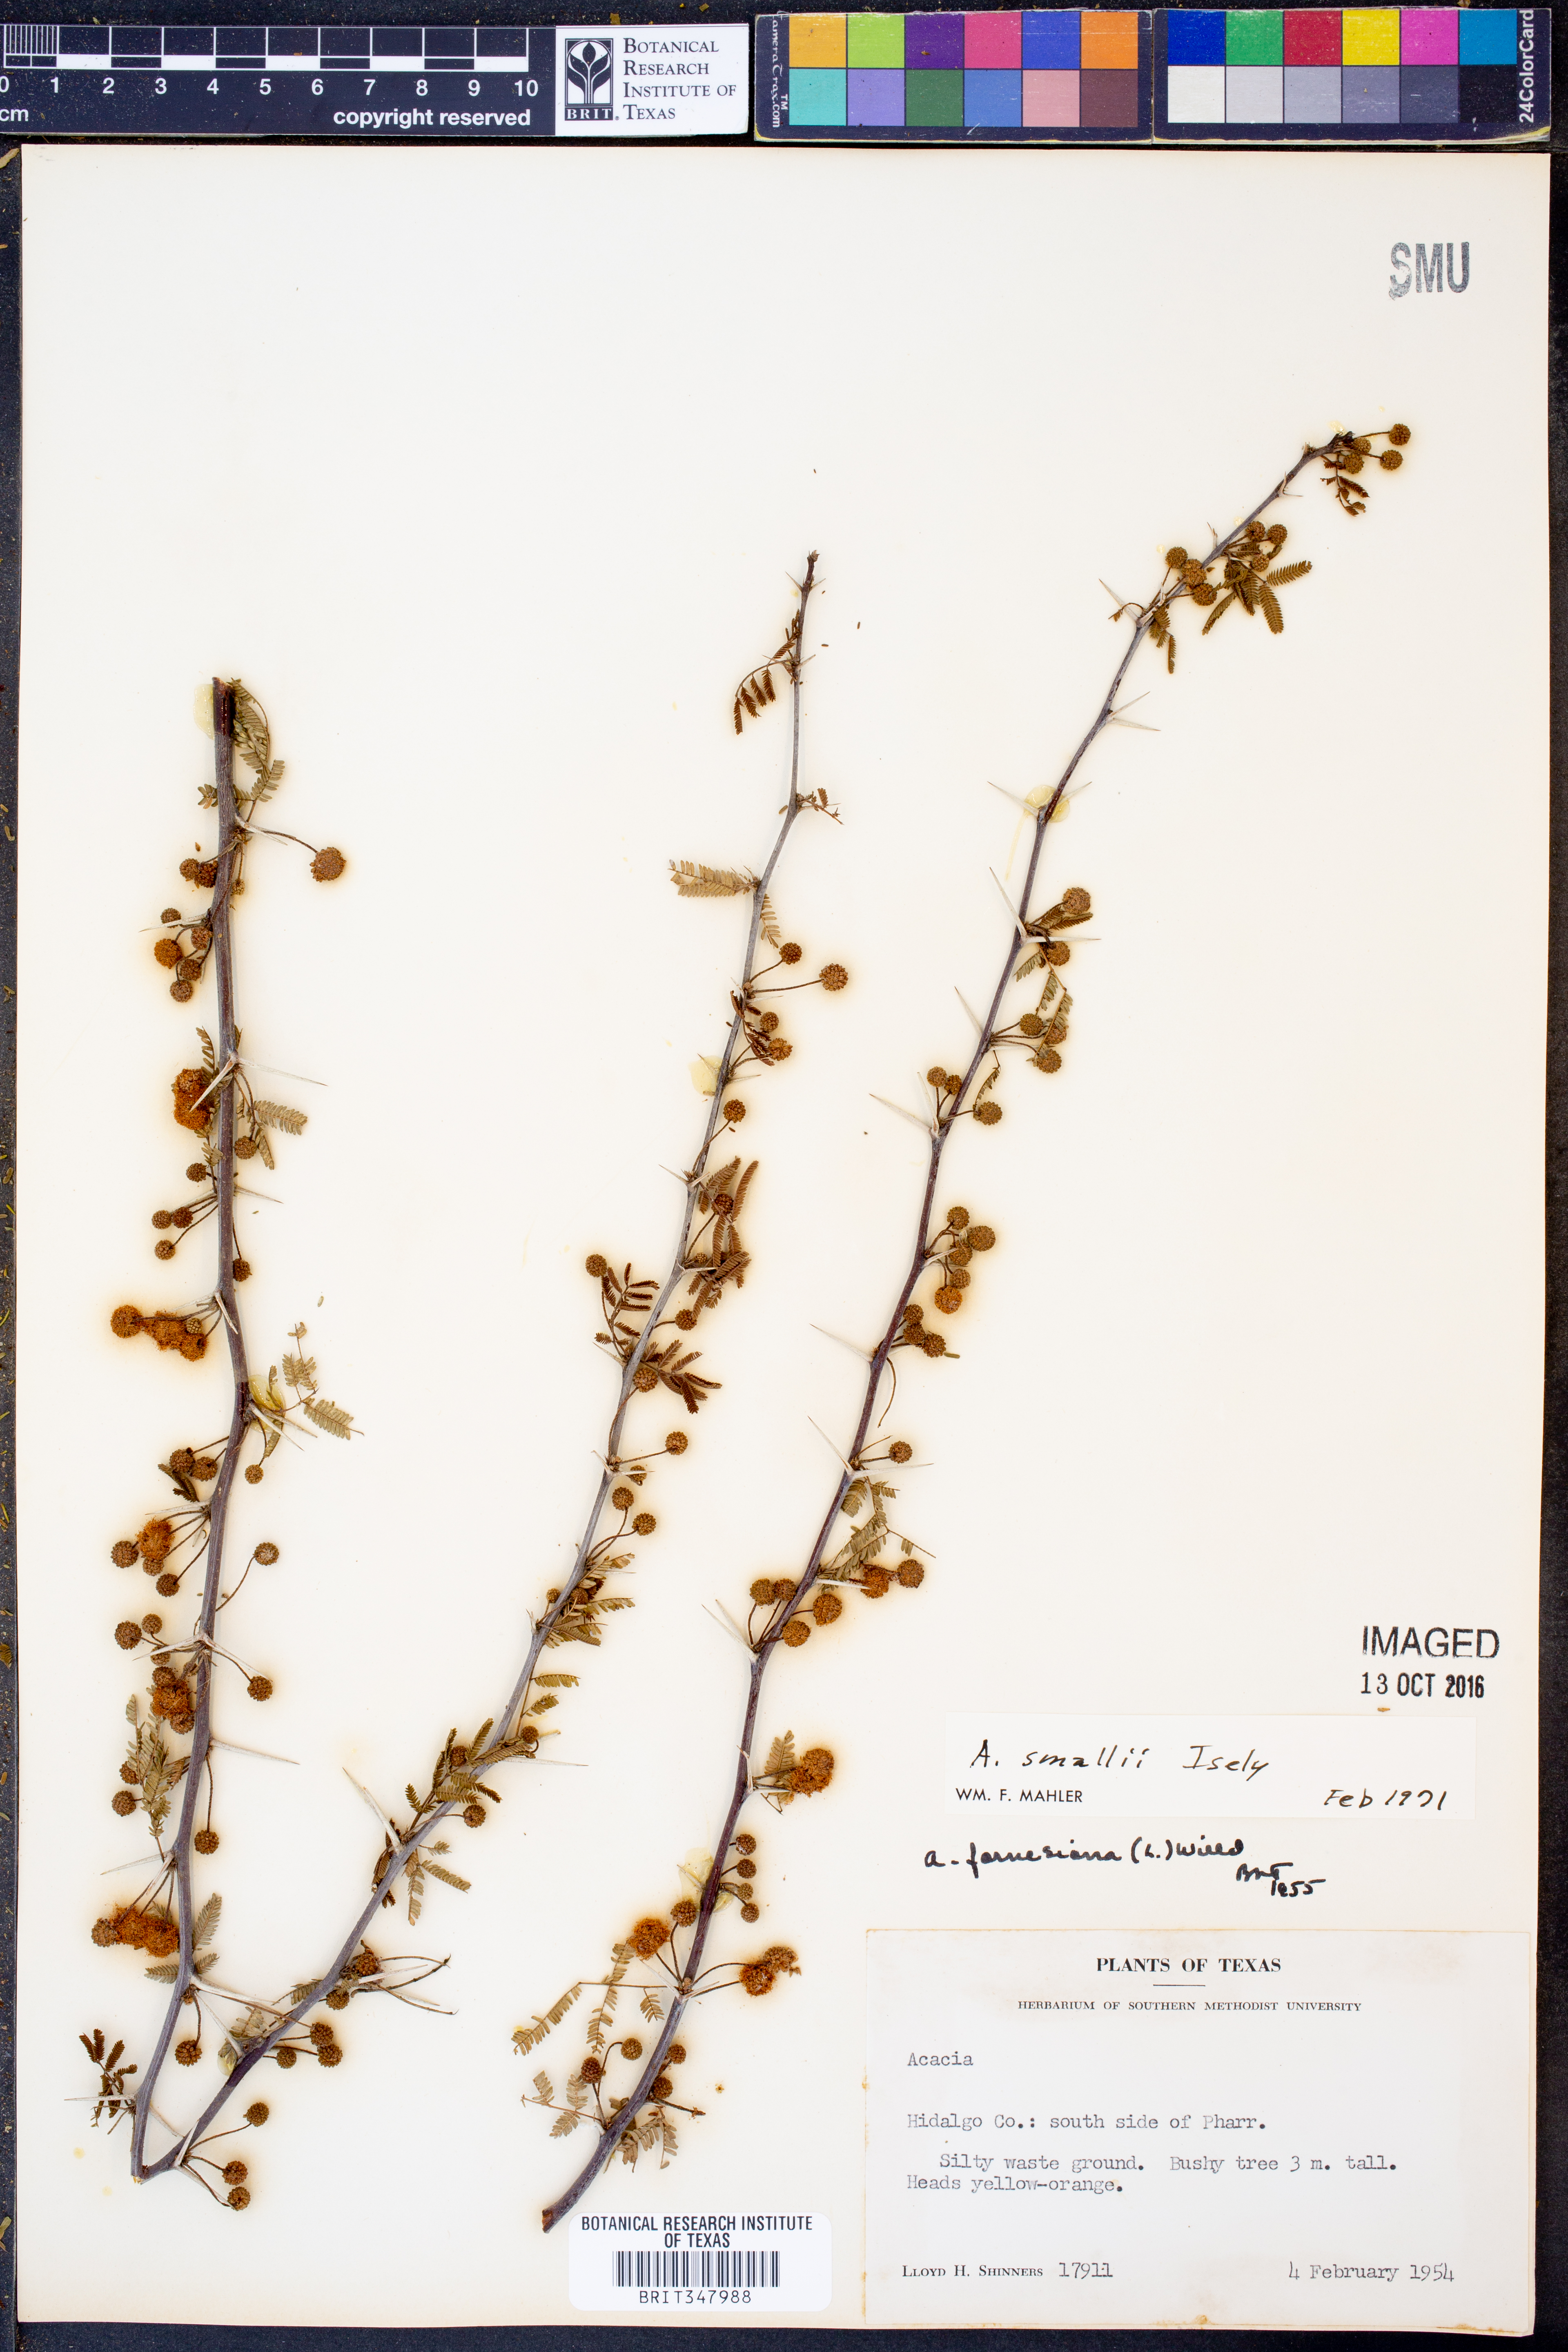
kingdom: Plantae
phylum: Tracheophyta
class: Magnoliopsida
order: Fabales
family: Fabaceae
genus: Vachellia
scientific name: Vachellia farnesiana
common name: Sweet acacia
